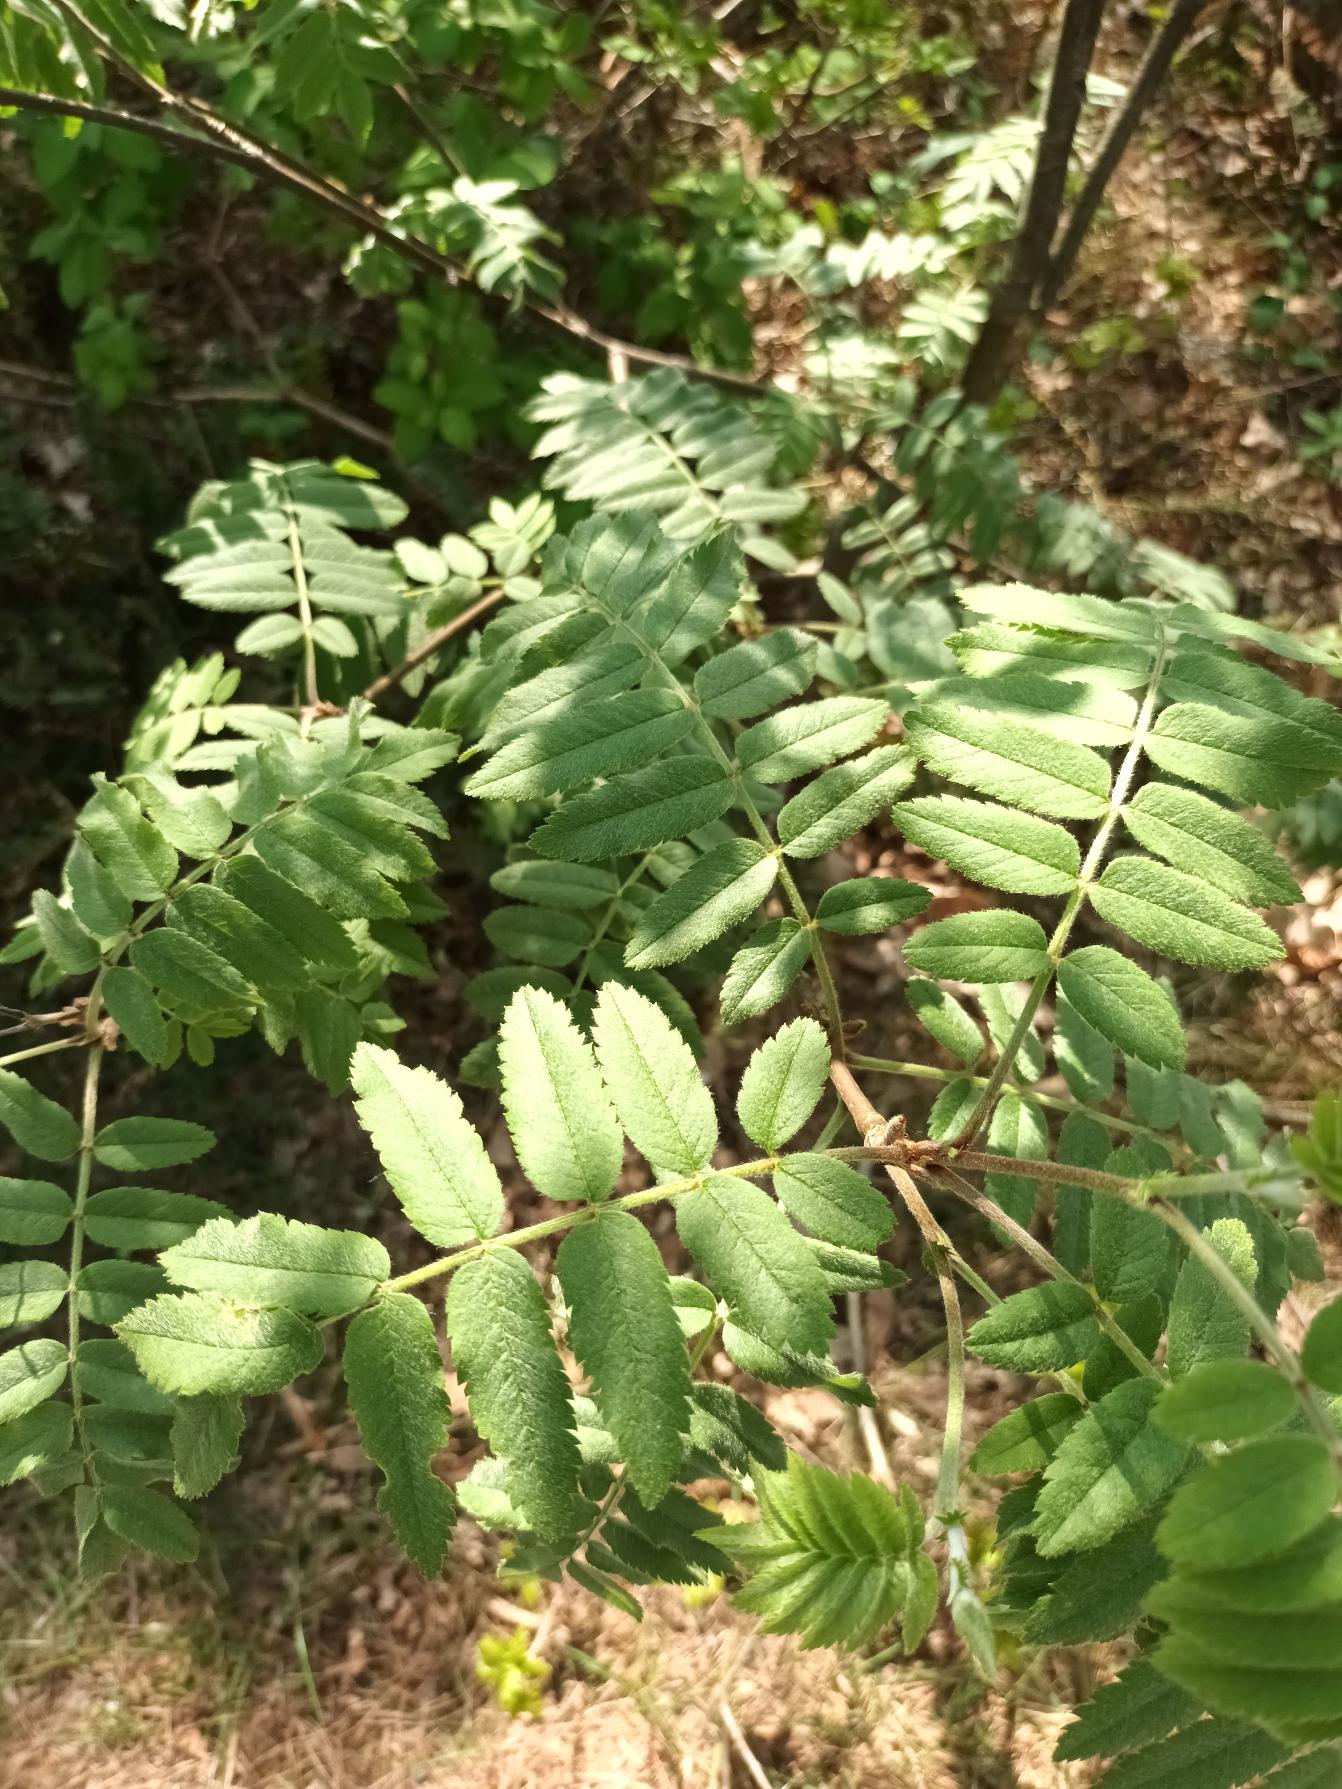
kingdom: Plantae
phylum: Tracheophyta
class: Magnoliopsida
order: Rosales
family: Rosaceae
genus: Sorbus
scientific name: Sorbus aucuparia
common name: Almindelig røn
